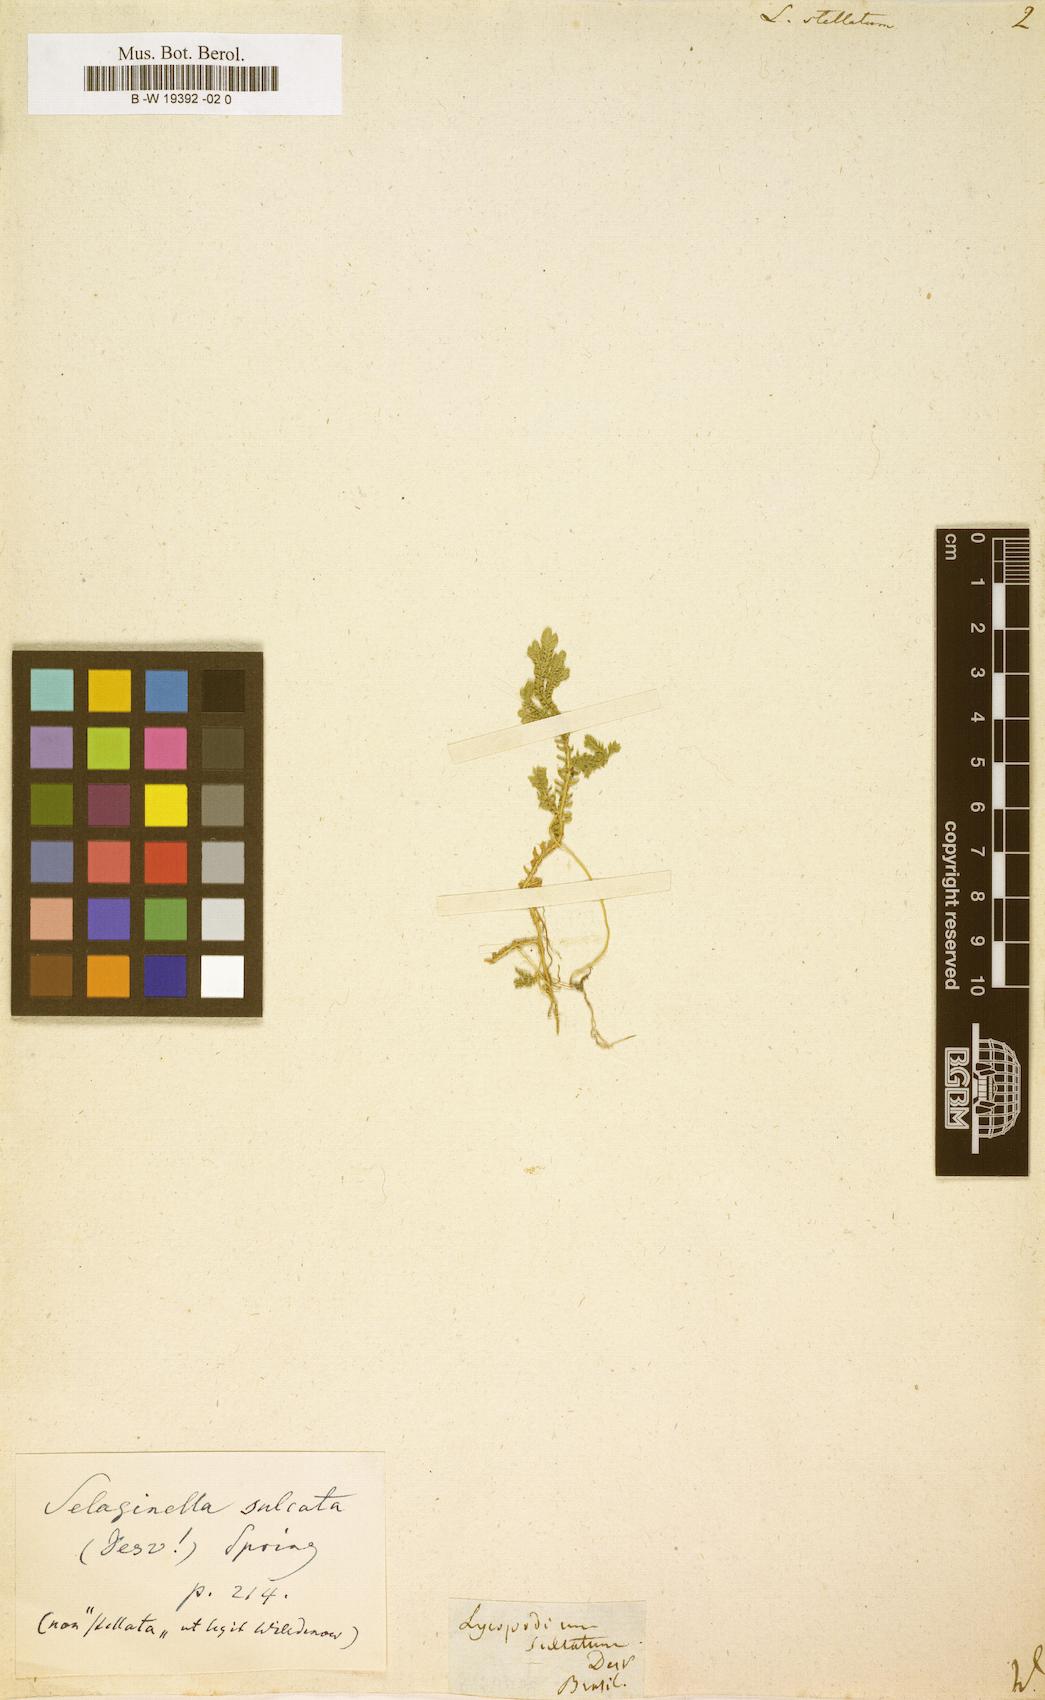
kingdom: Plantae
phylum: Tracheophyta
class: Lycopodiopsida
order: Selaginellales
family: Selaginellaceae
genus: Selaginella
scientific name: Selaginella stellata
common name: Starry spikemoss
